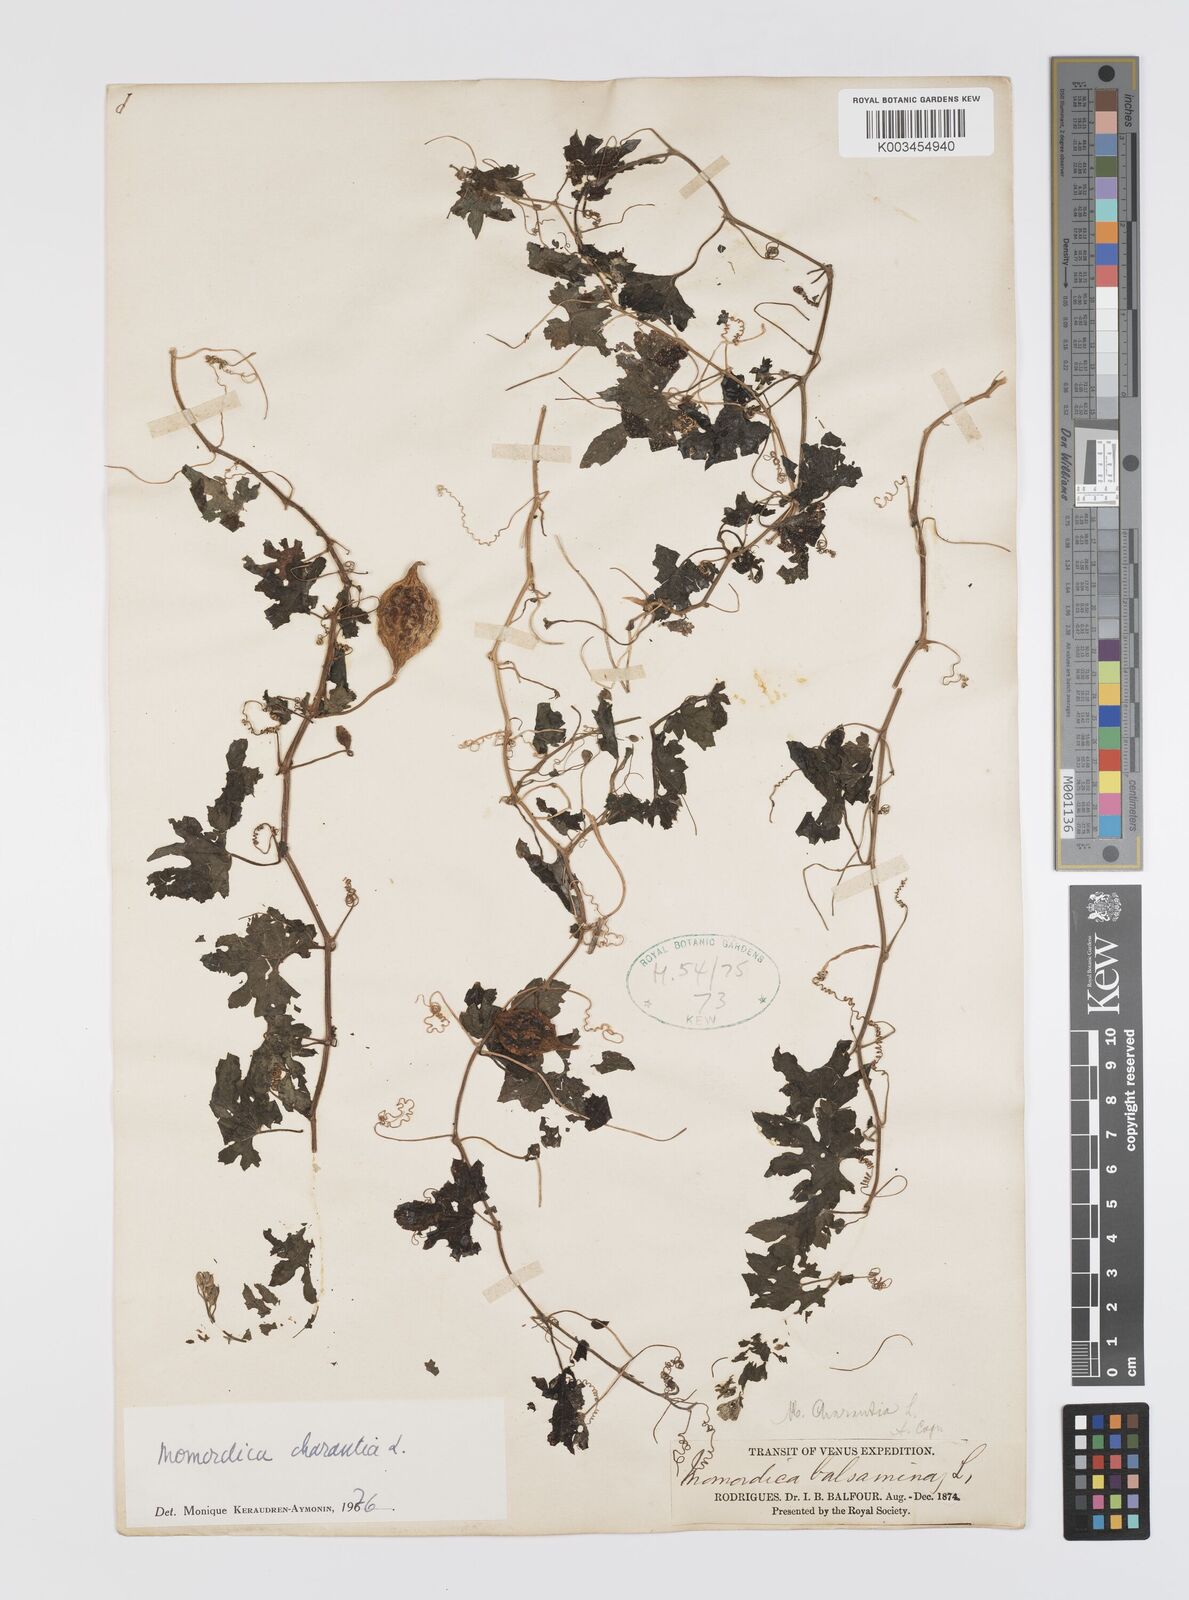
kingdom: Plantae
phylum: Tracheophyta
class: Magnoliopsida
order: Cucurbitales
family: Cucurbitaceae
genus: Momordica
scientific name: Momordica charantia
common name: Balsampear
